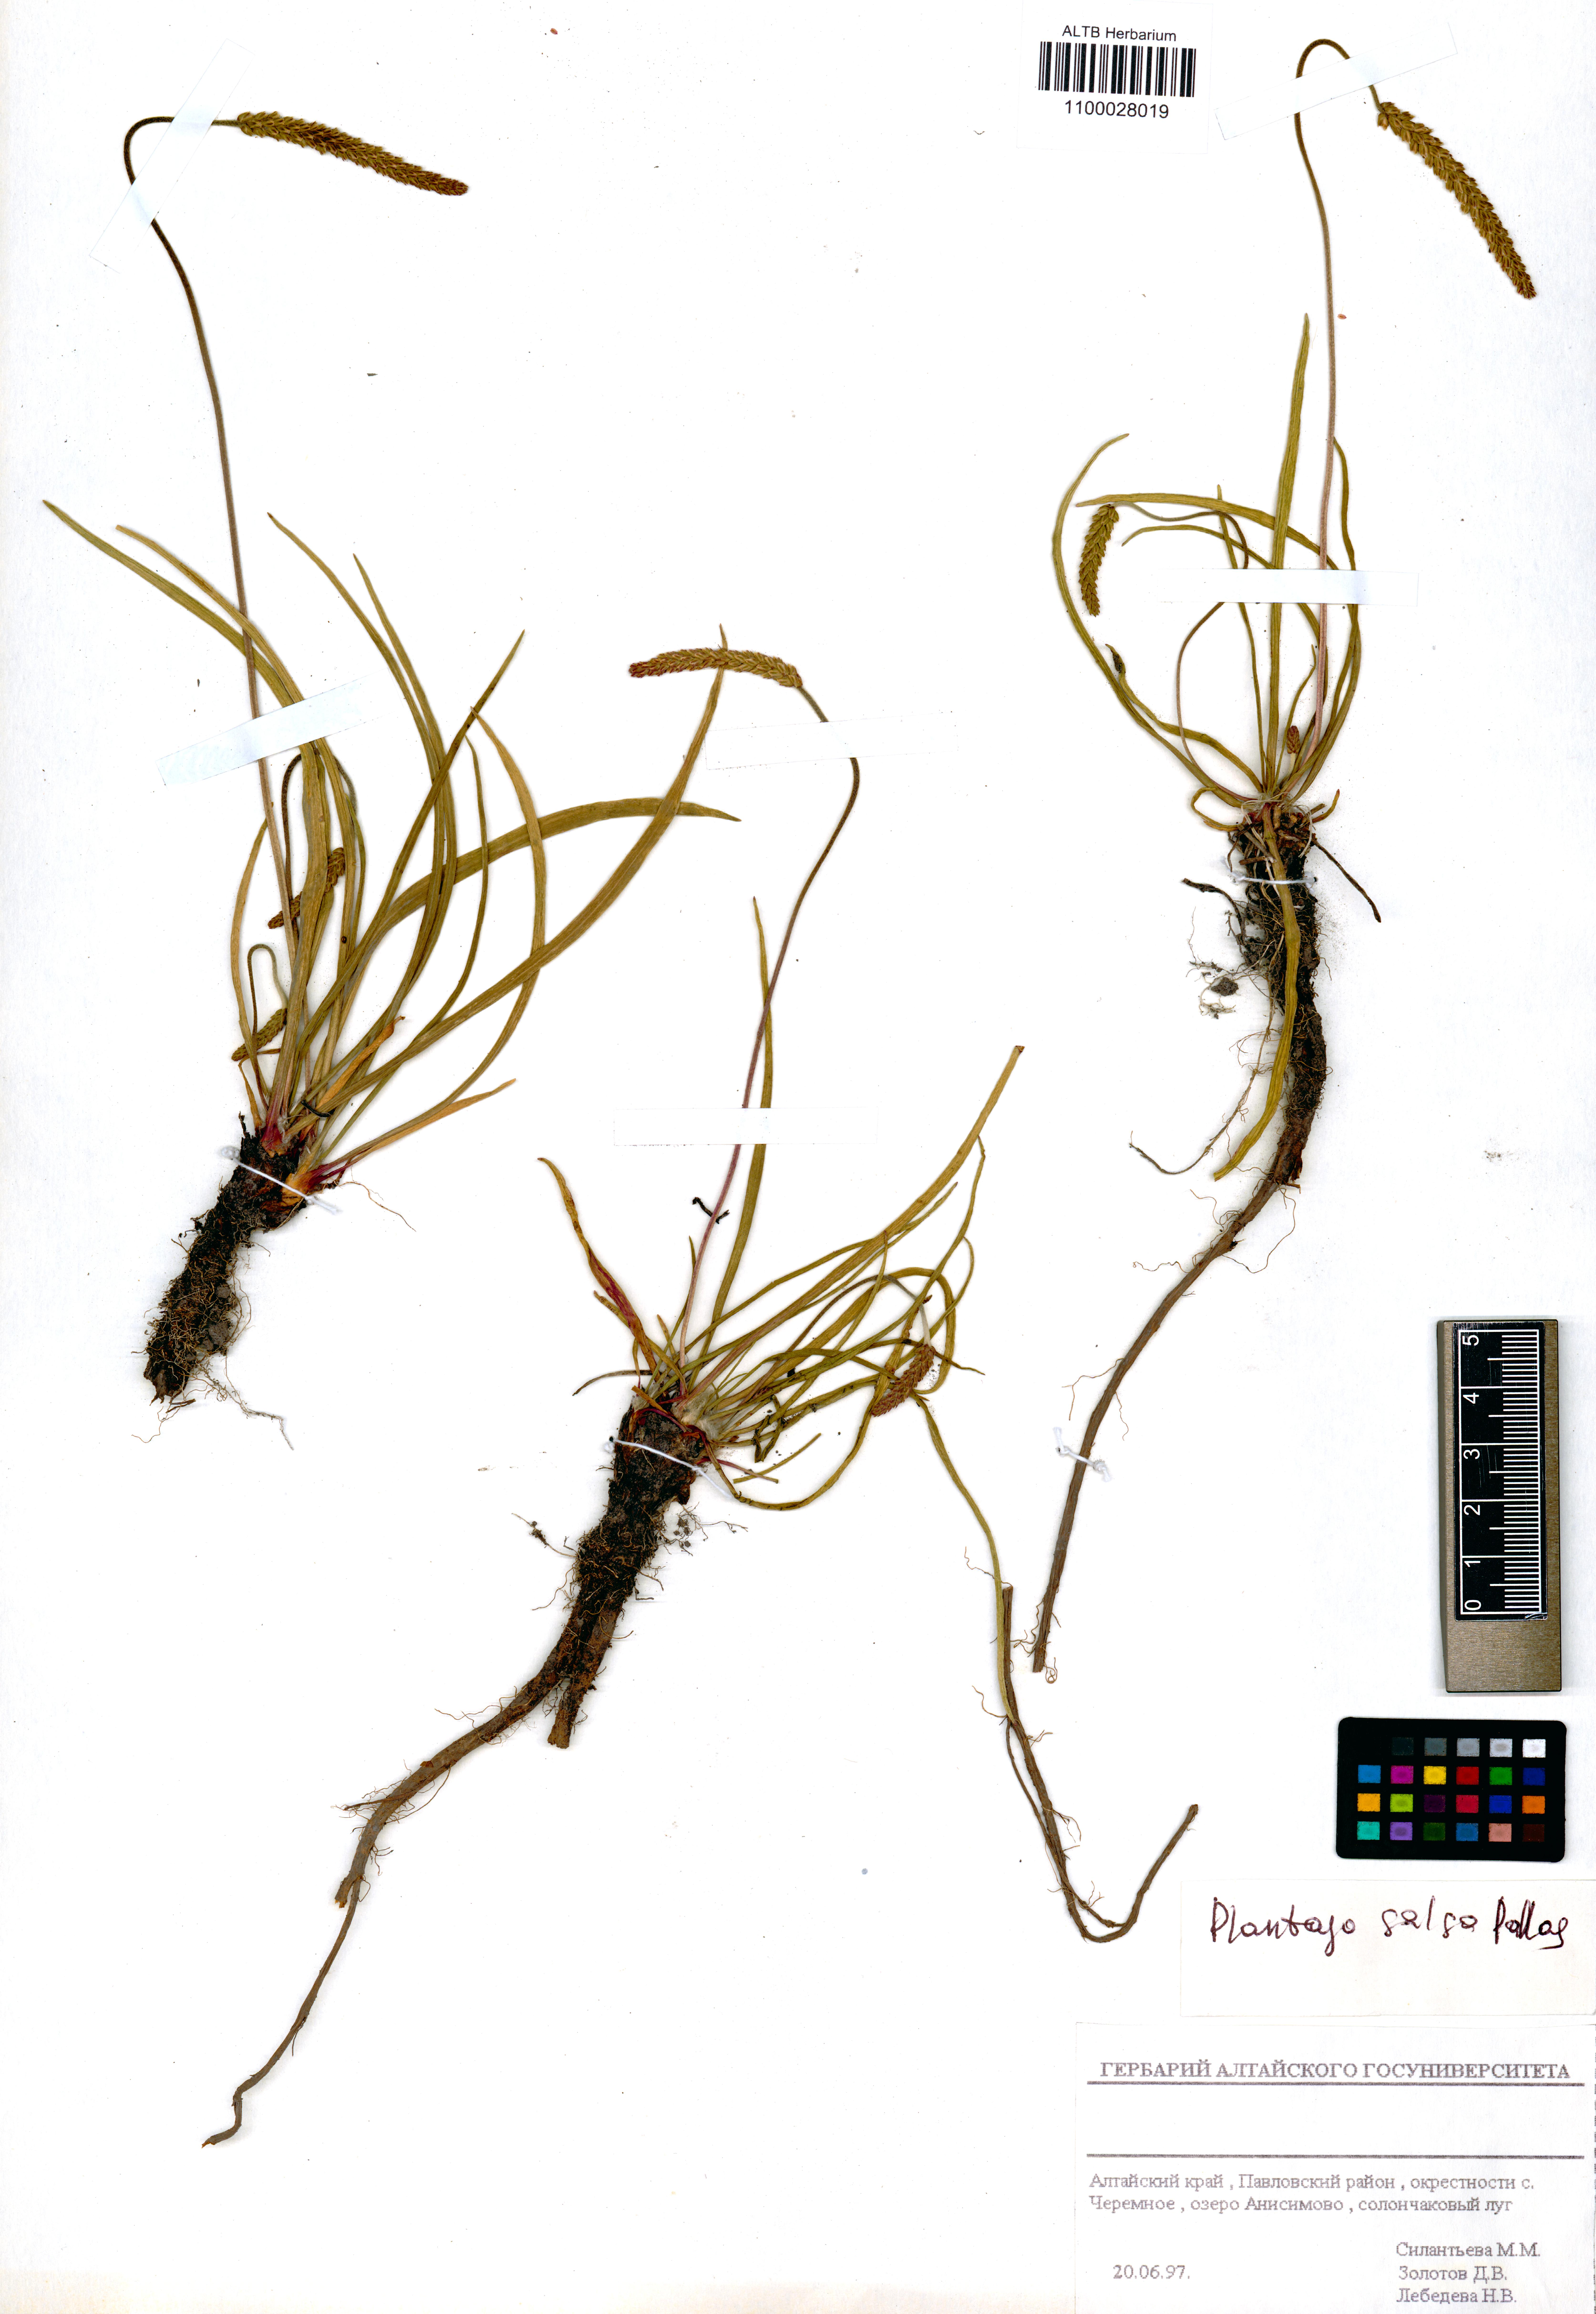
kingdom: Plantae
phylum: Tracheophyta
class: Magnoliopsida
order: Lamiales
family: Plantaginaceae
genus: Plantago
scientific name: Plantago salsa
